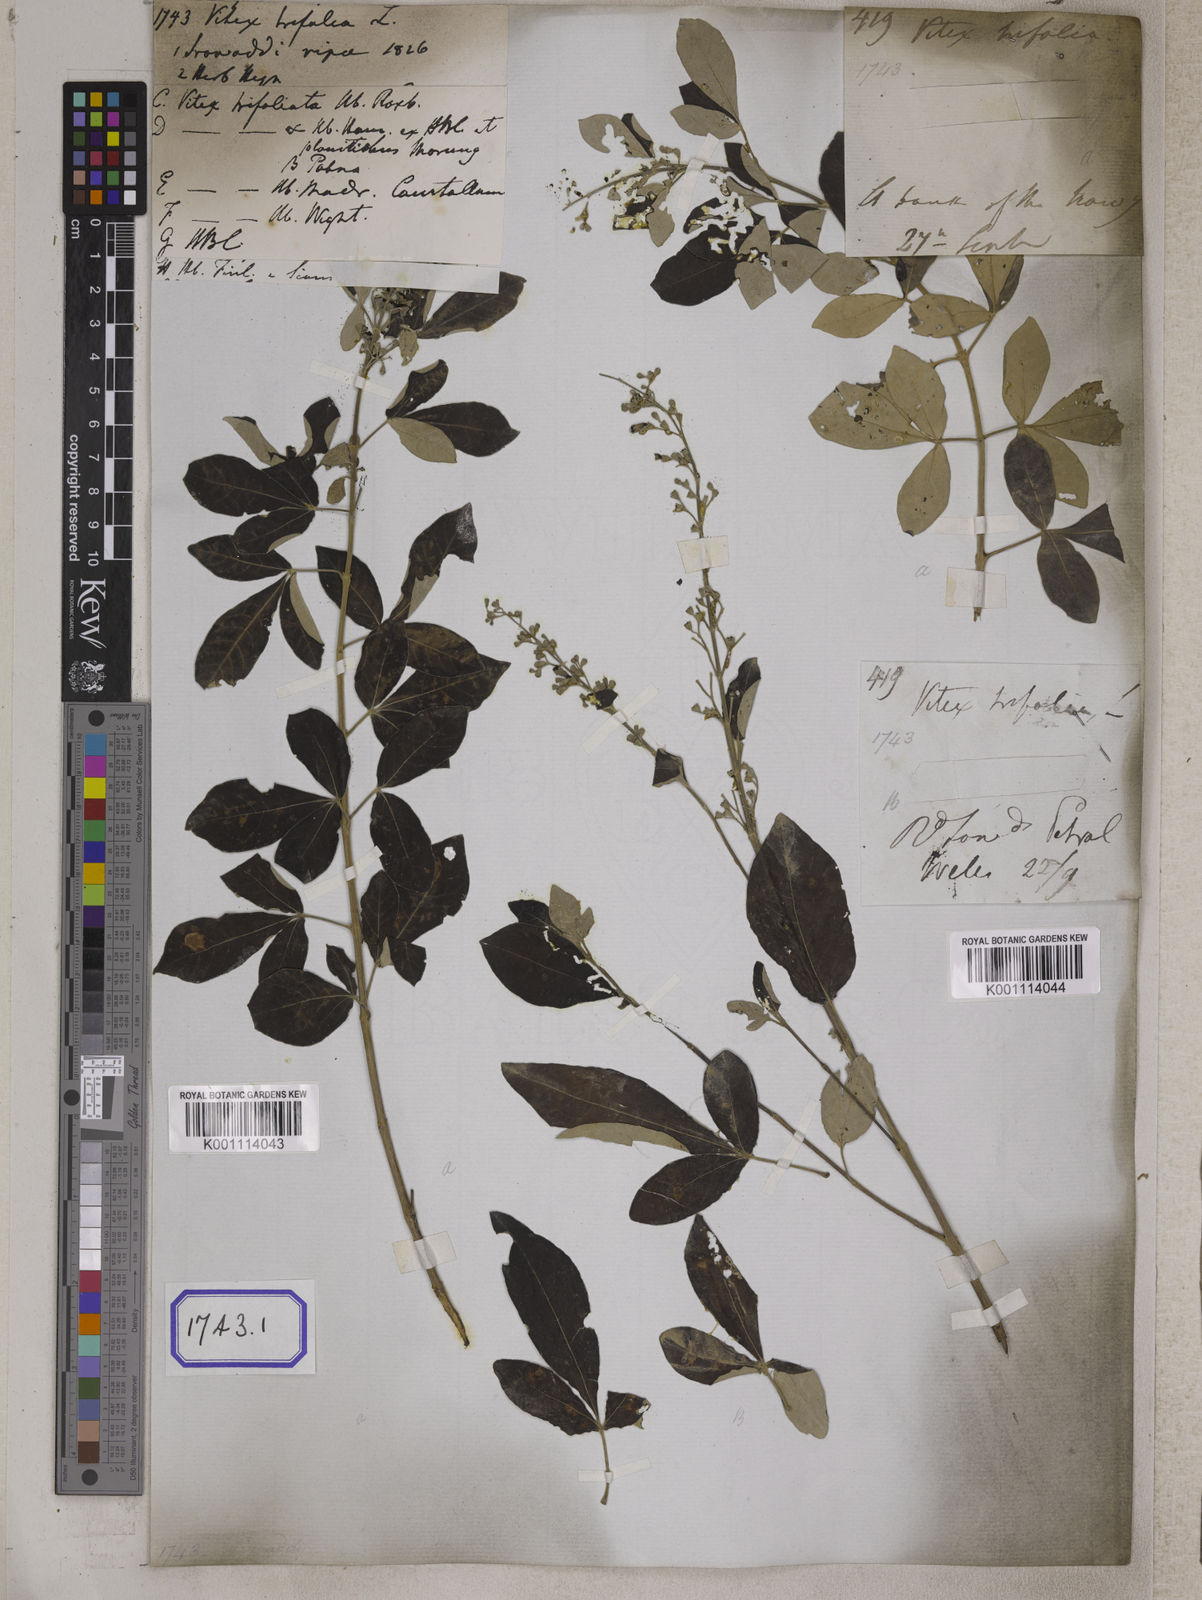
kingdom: Plantae
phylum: Tracheophyta
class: Magnoliopsida
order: Lamiales
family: Lamiaceae
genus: Vitex
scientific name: Vitex trifolia
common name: Simpleleaf chastetree
